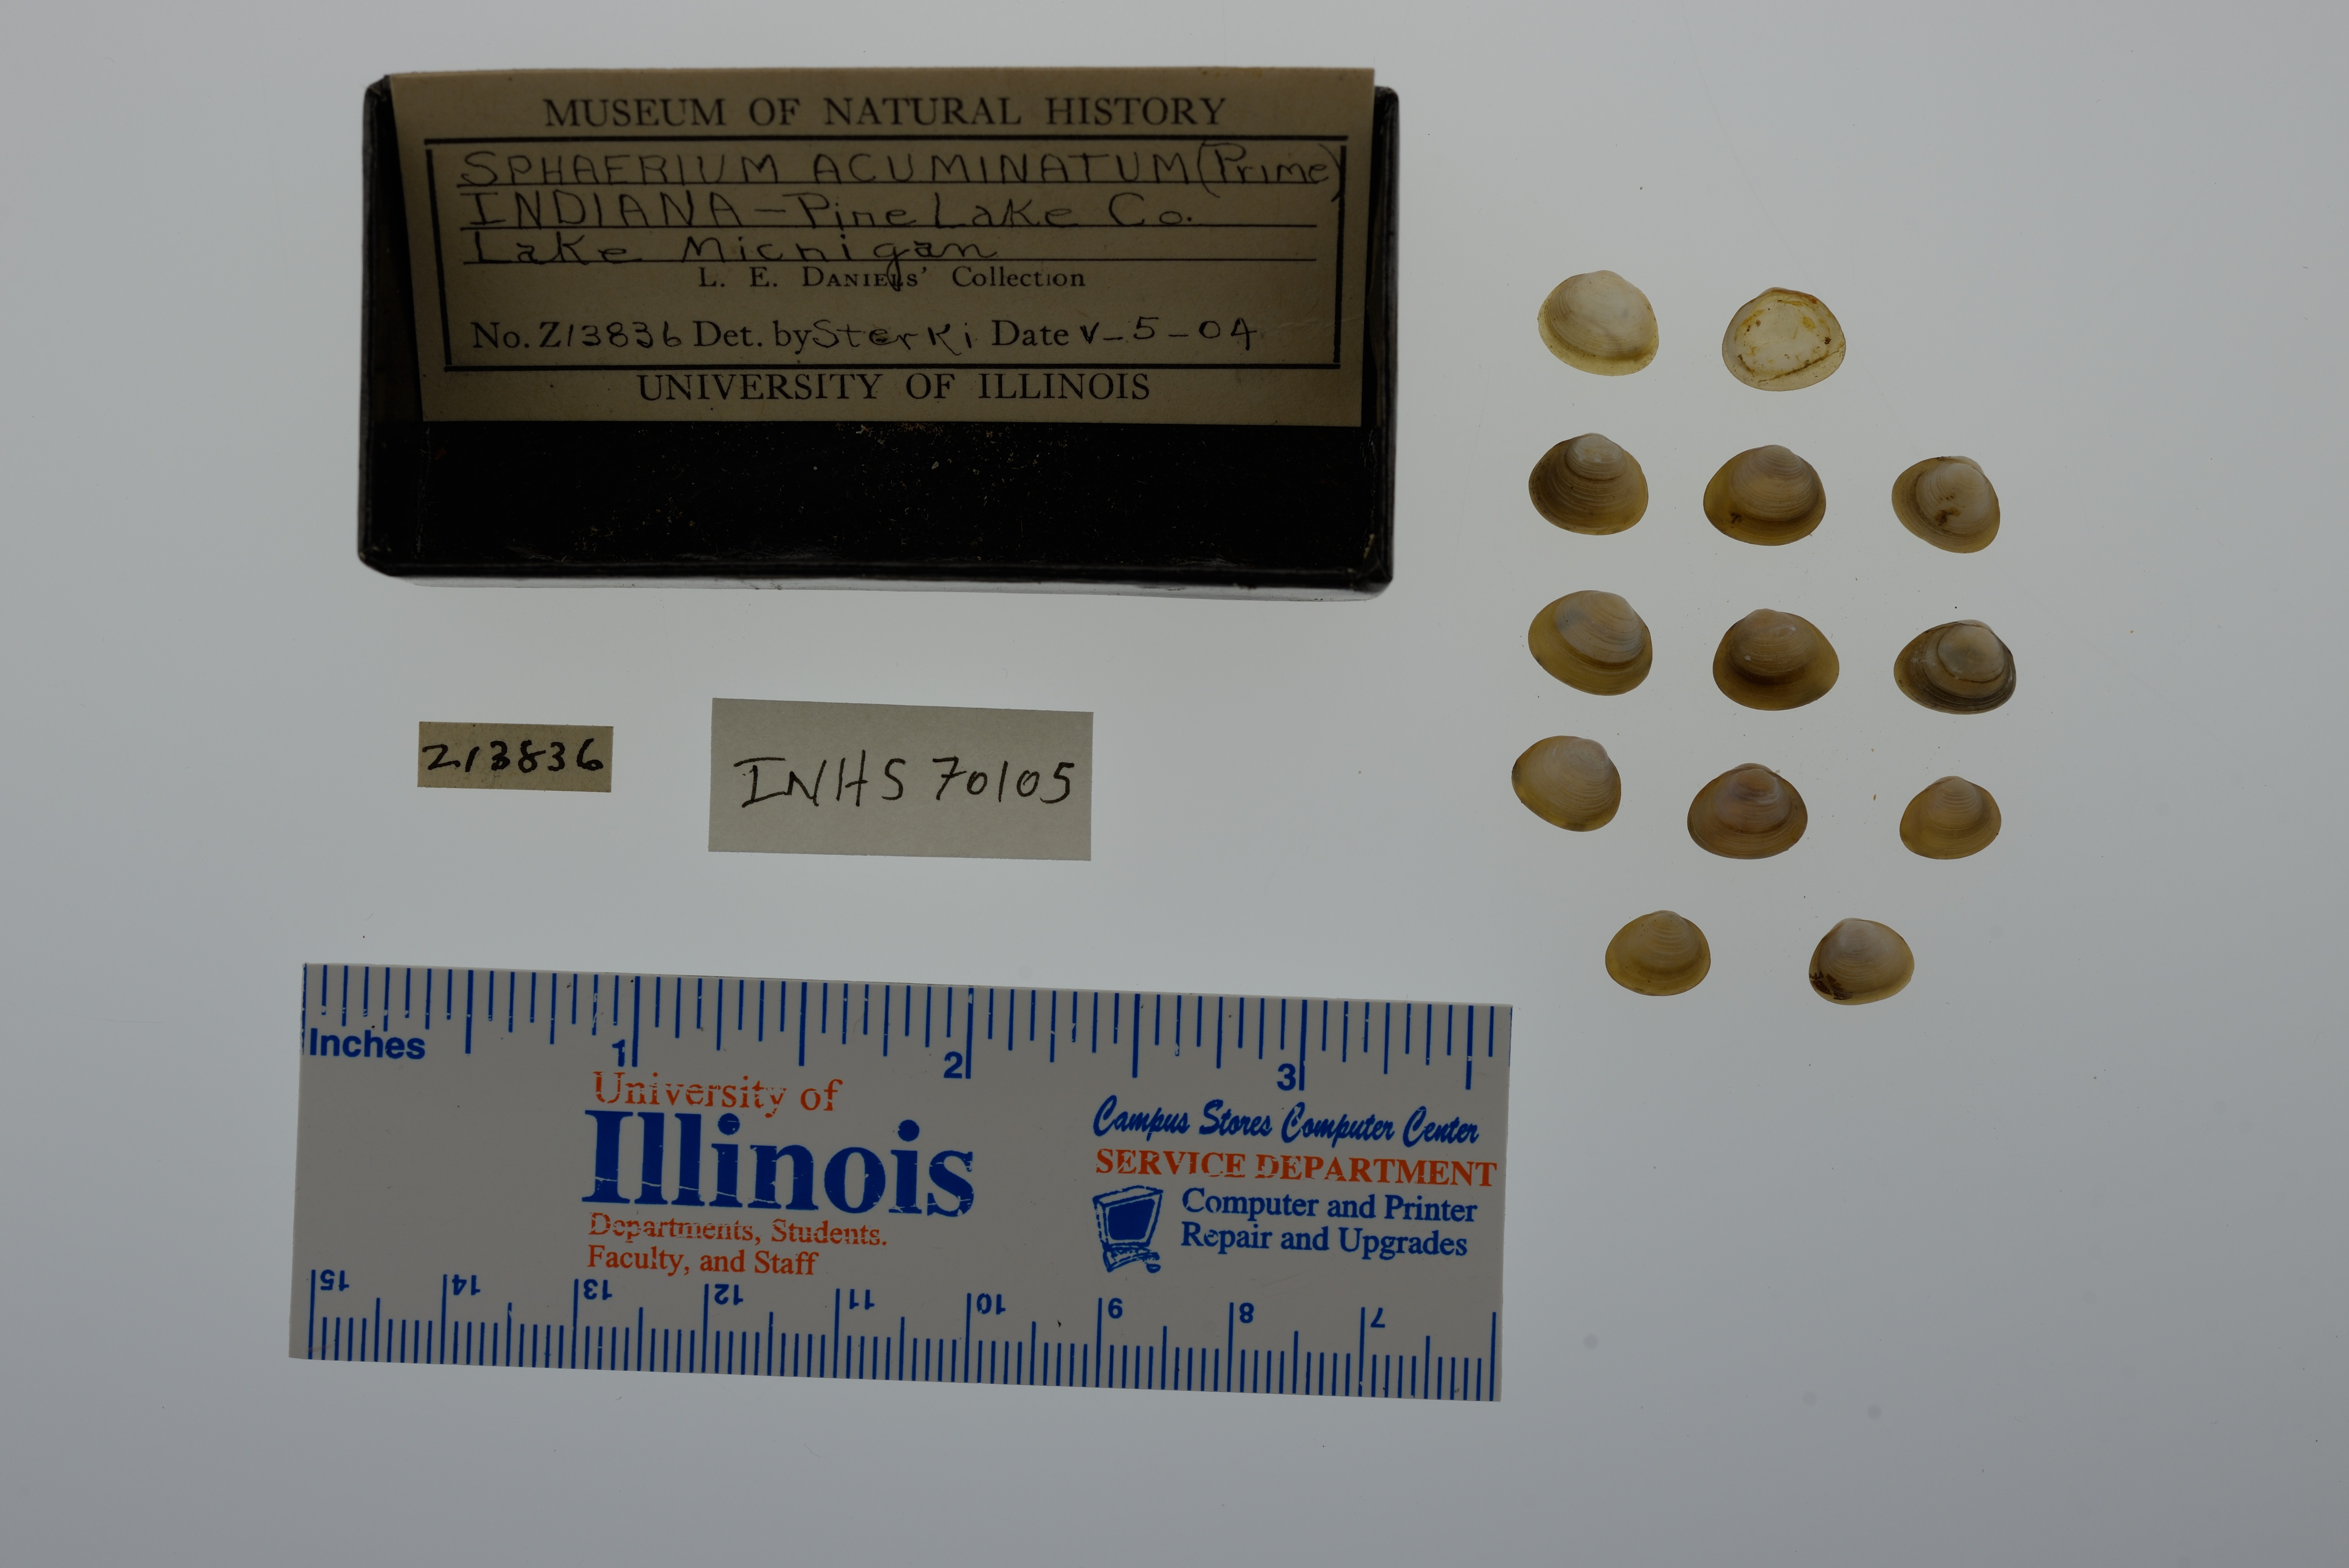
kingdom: Animalia
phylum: Mollusca
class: Bivalvia
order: Sphaeriida
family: Sphaeriidae
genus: Sphaerium
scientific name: Sphaerium striatinum
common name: Striated fingernailclam
